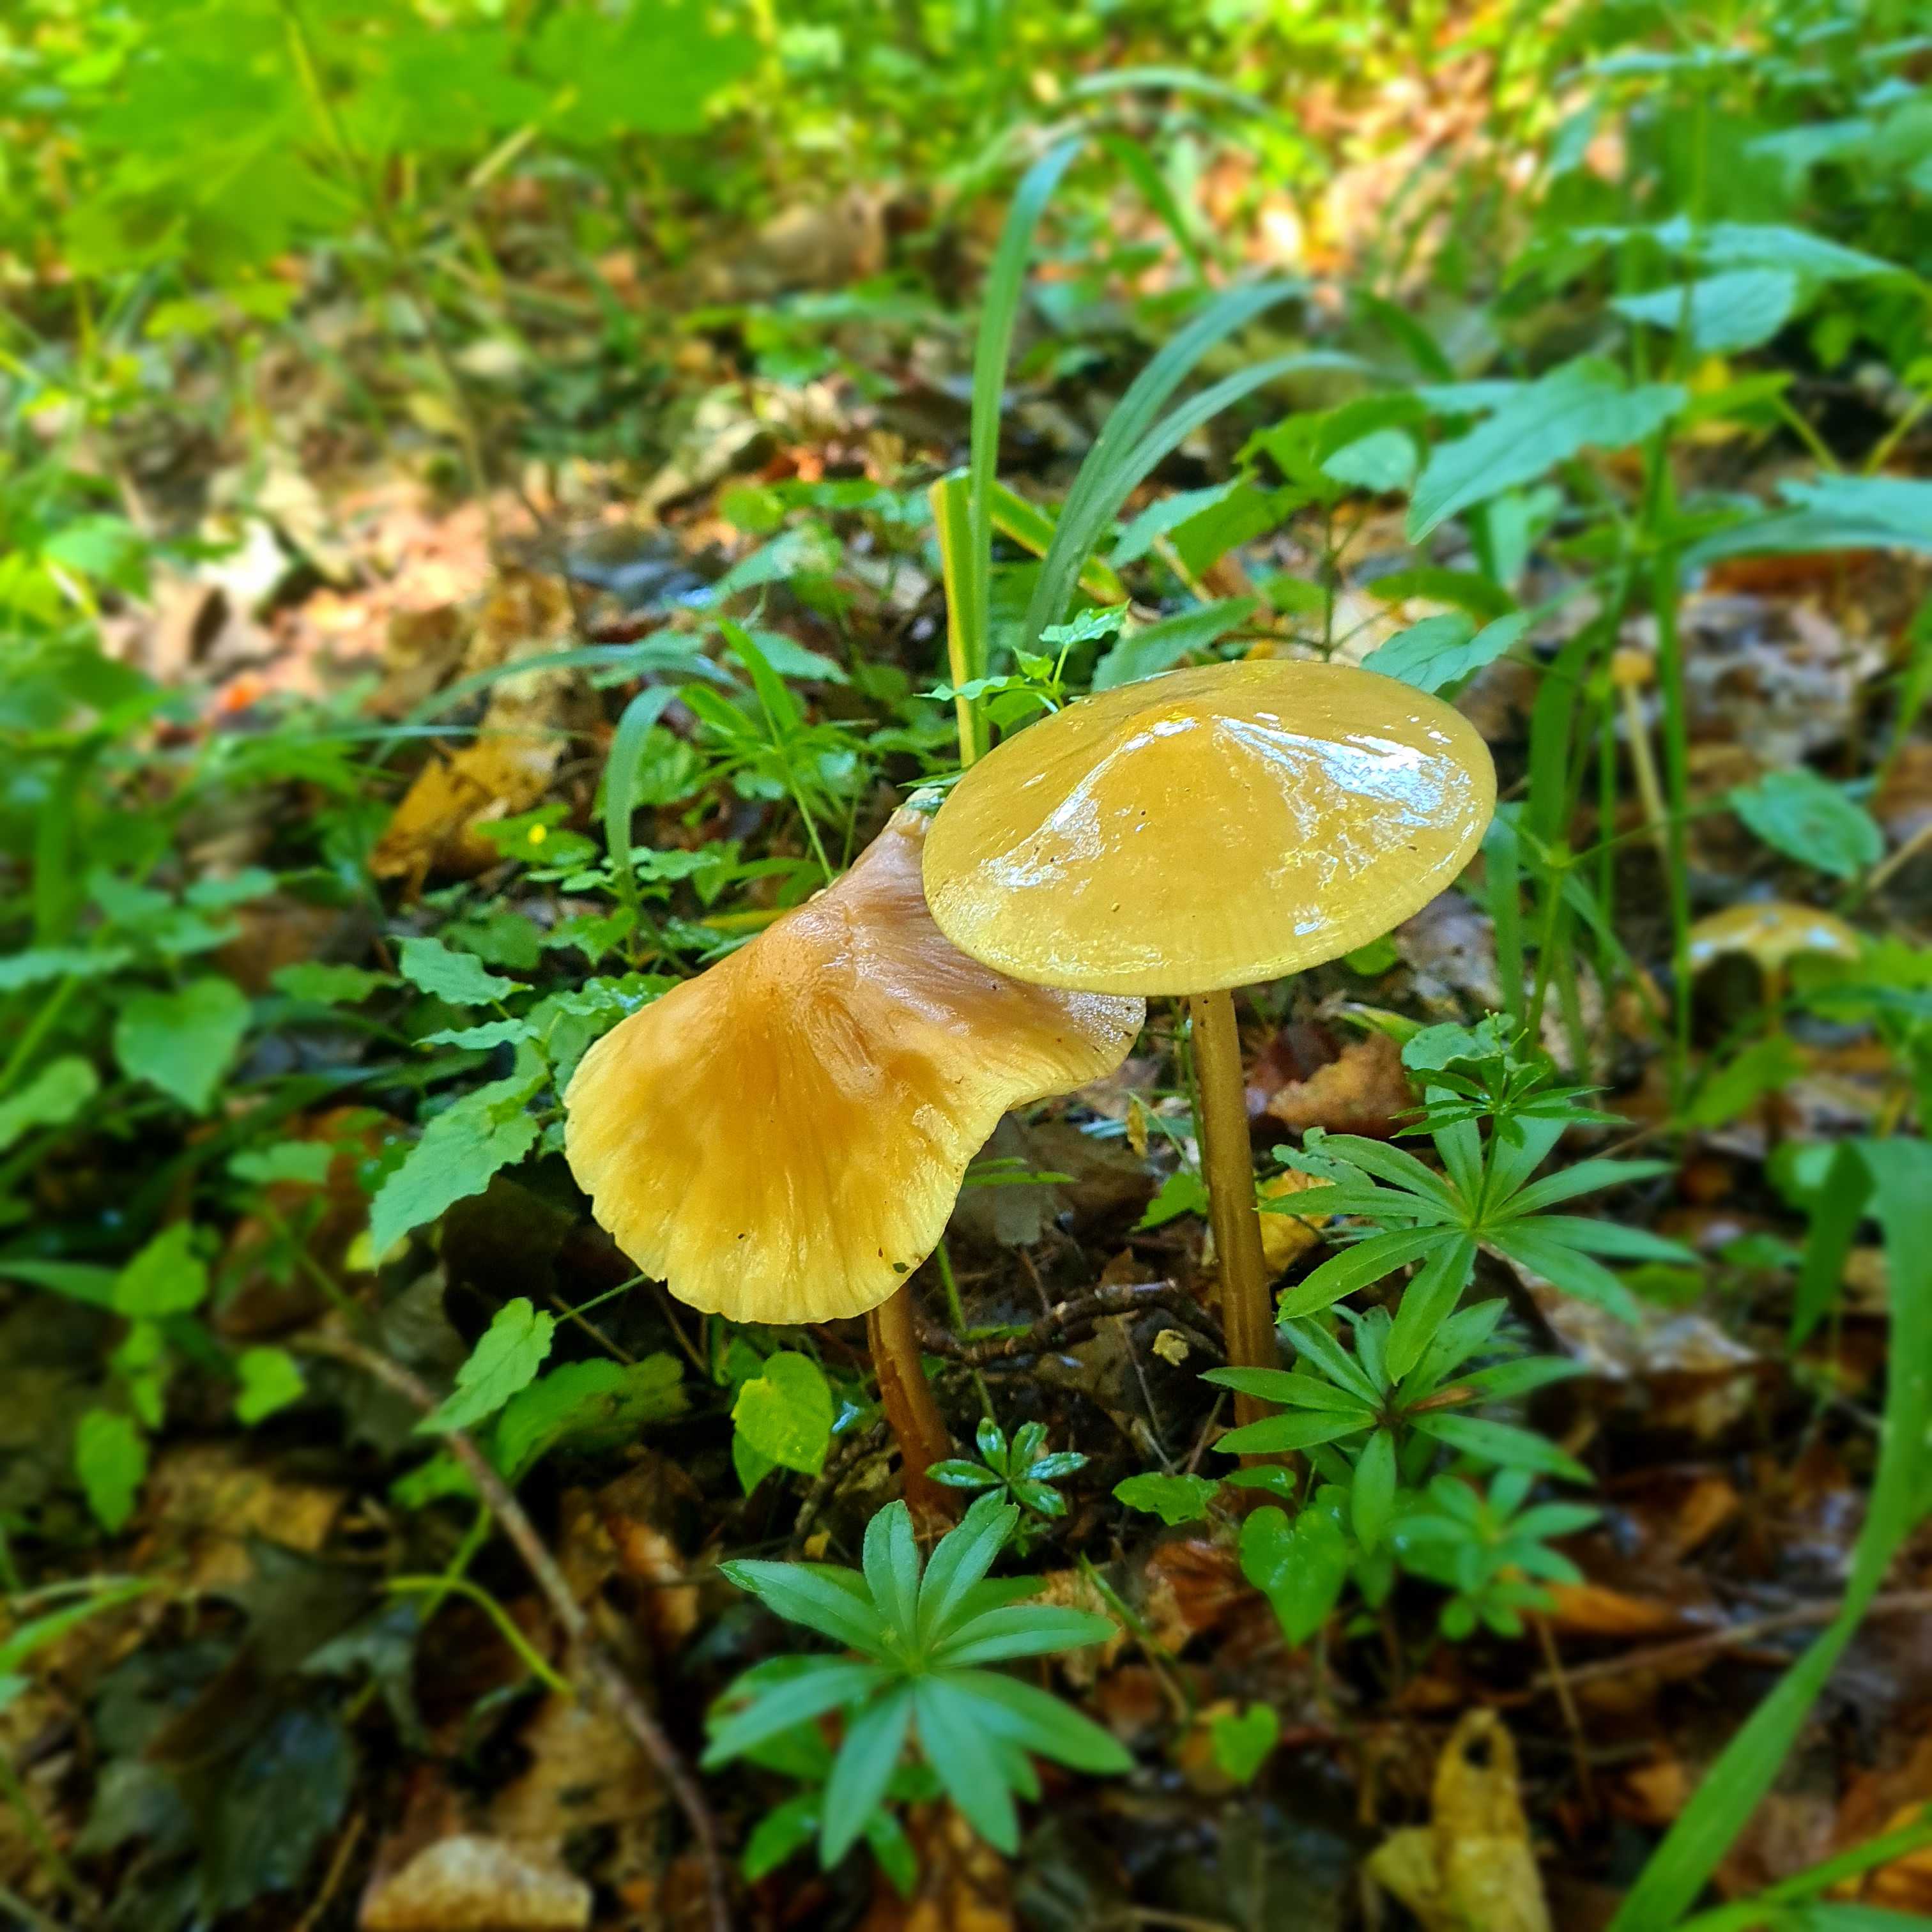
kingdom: Fungi
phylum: Basidiomycota
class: Agaricomycetes
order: Agaricales
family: Physalacriaceae
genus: Hymenopellis
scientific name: Hymenopellis radicata
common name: almindelig pælerodshat
